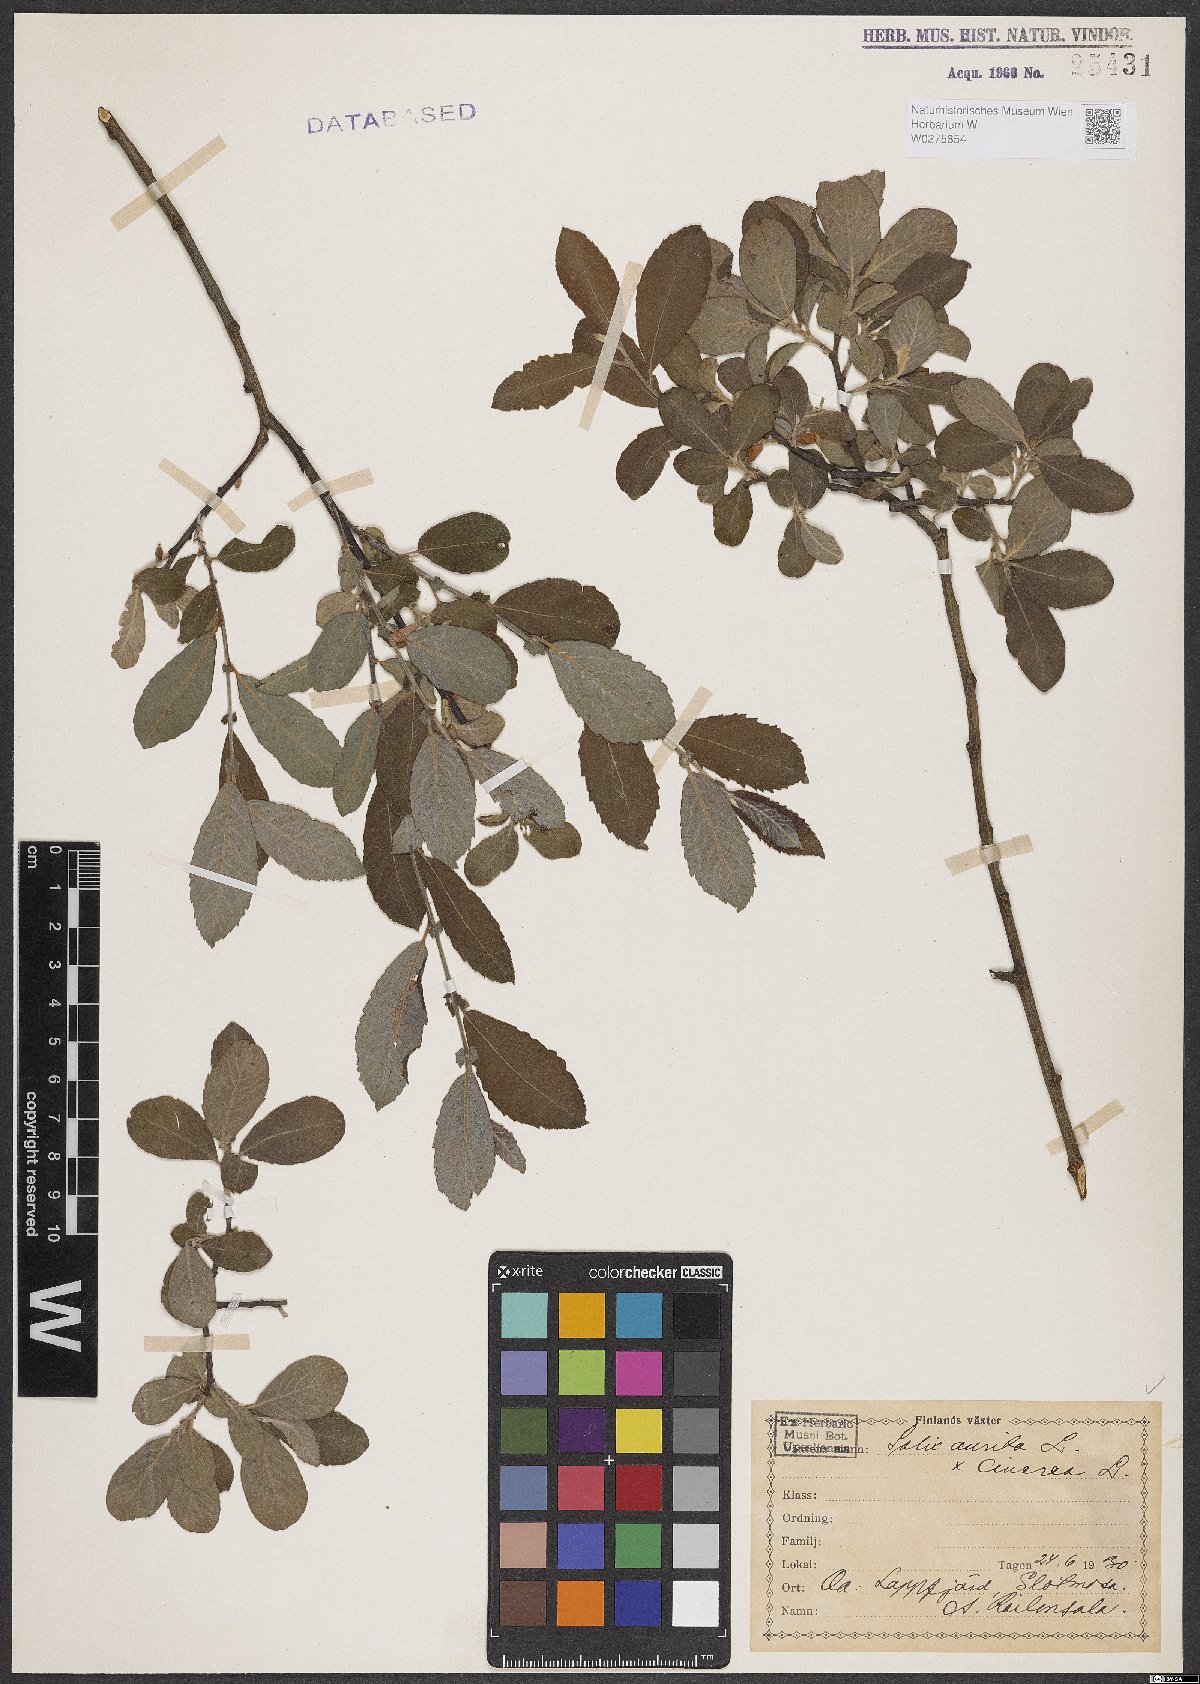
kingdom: Plantae
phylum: Tracheophyta
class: Magnoliopsida
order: Malpighiales
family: Salicaceae
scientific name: Salicaceae
